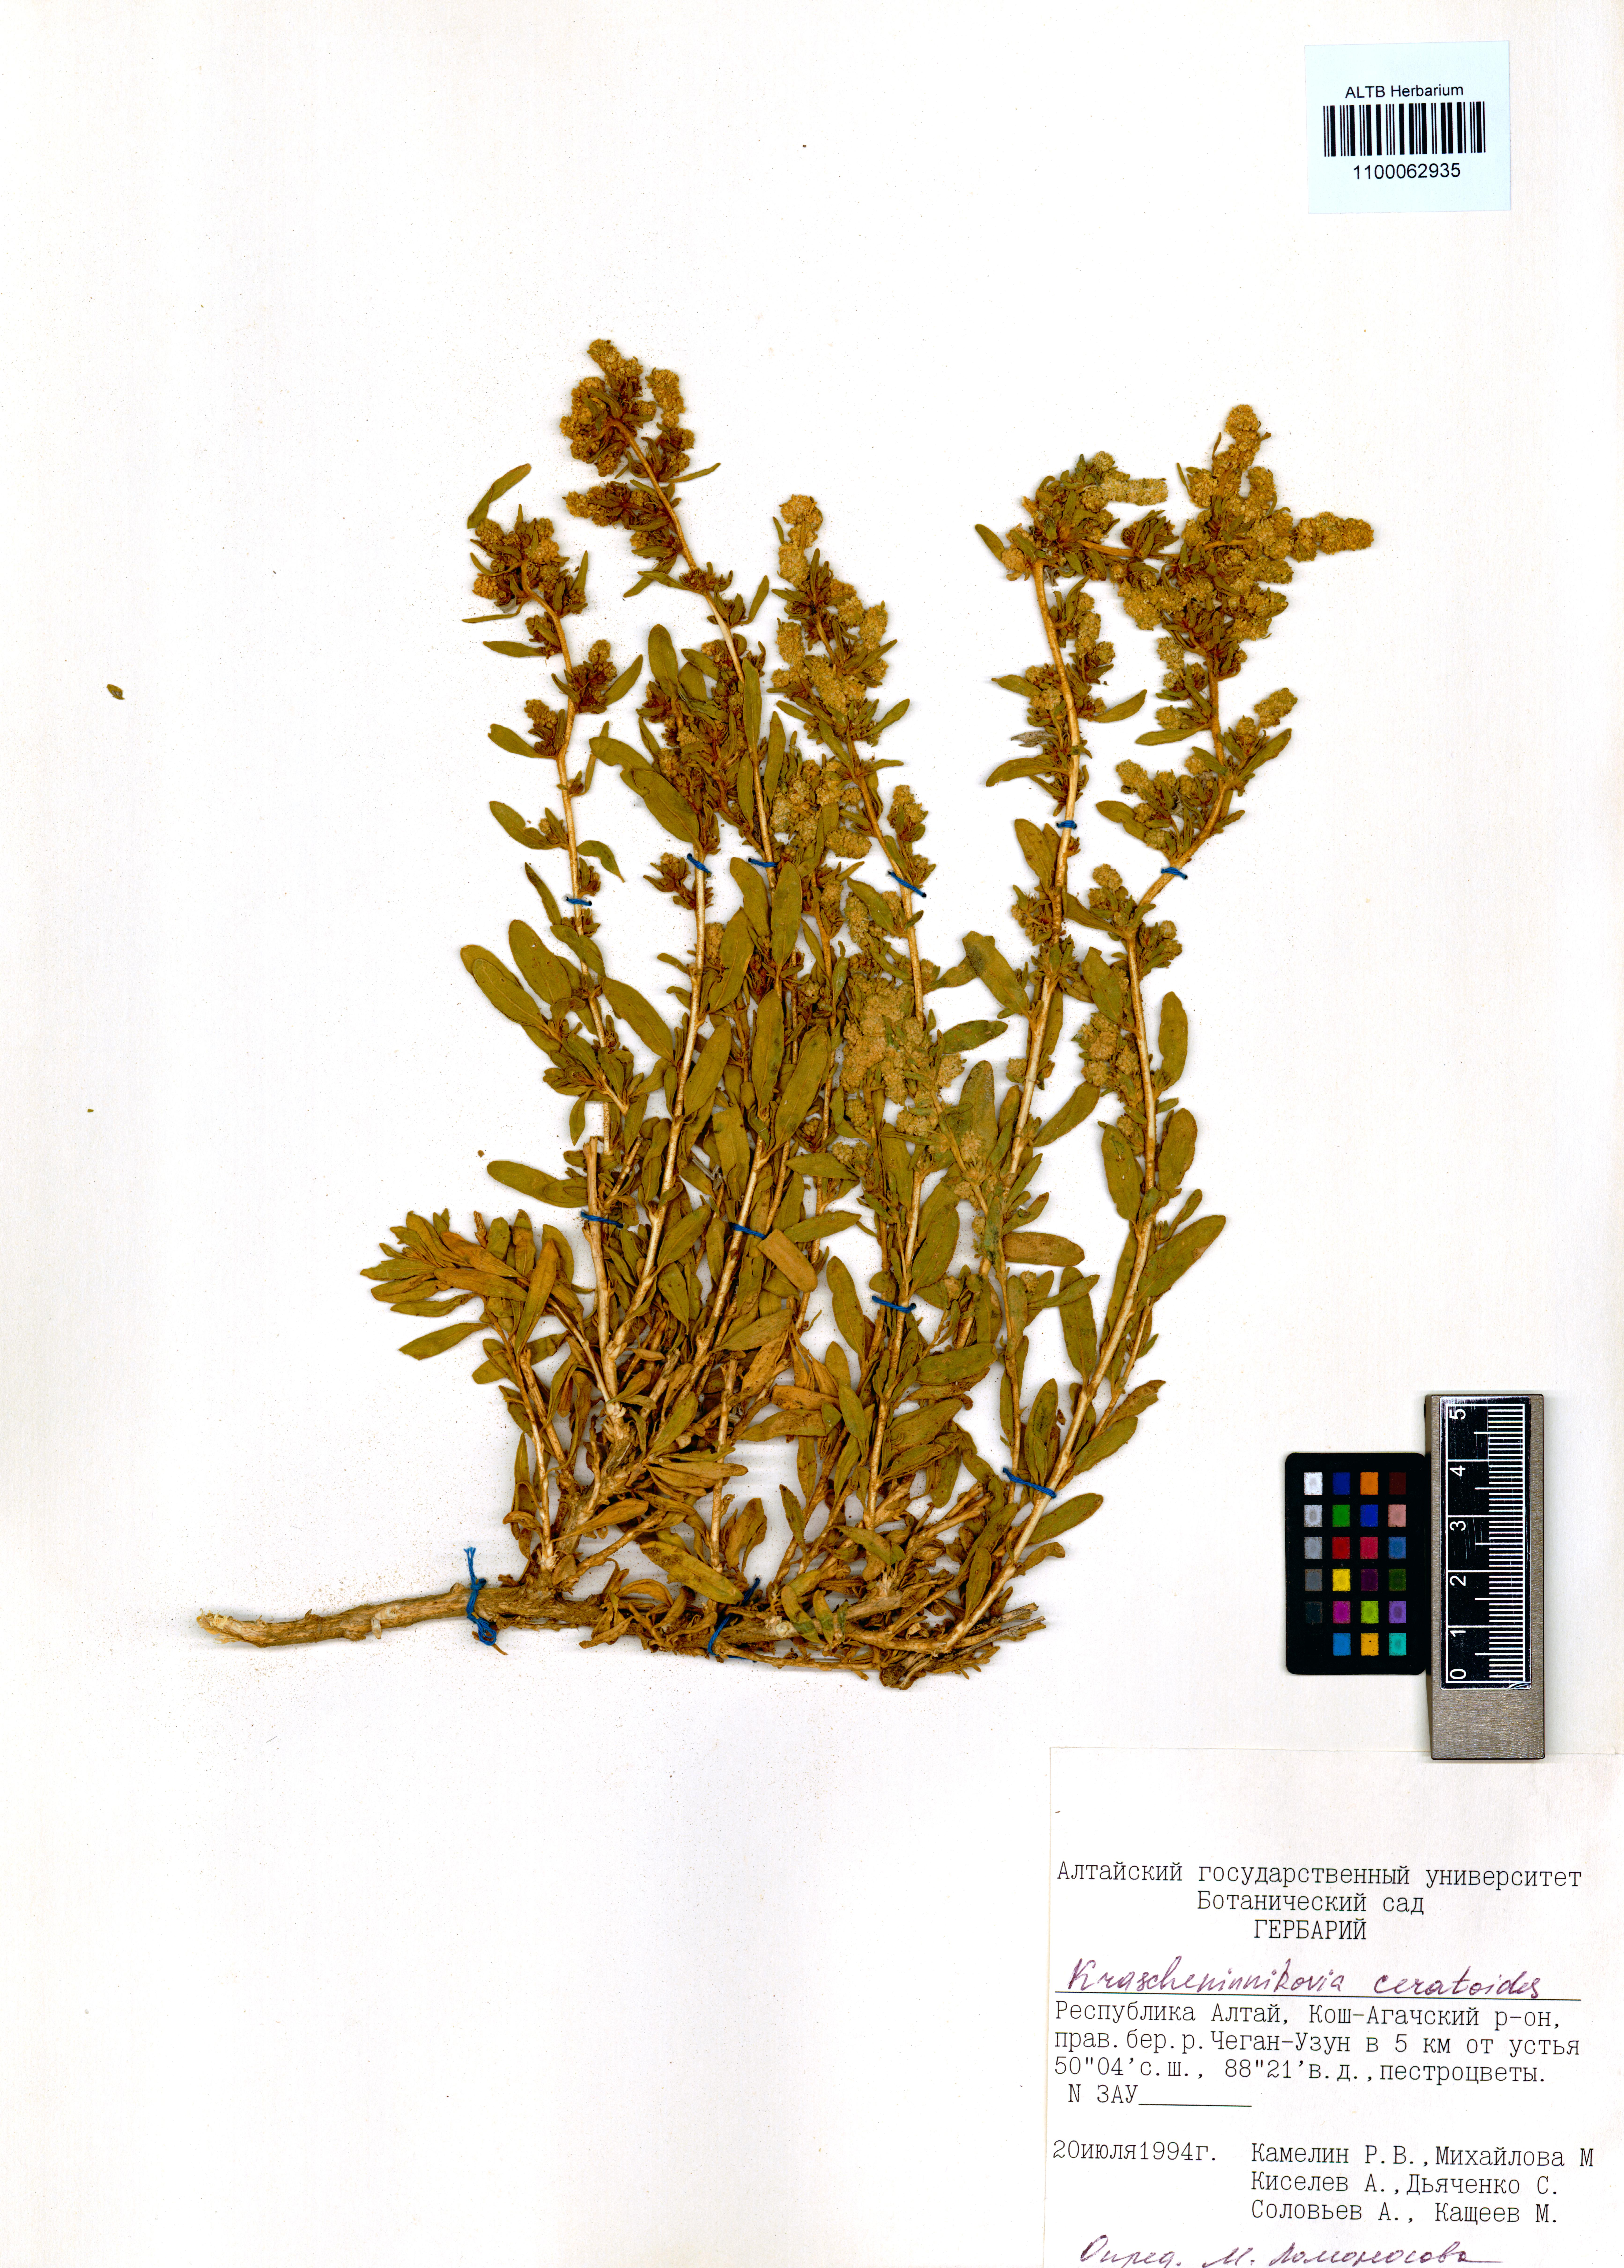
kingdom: Plantae
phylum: Tracheophyta
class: Magnoliopsida
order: Caryophyllales
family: Amaranthaceae
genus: Krascheninnikovia
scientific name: Krascheninnikovia ceratoides
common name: Pamirian winterfat
